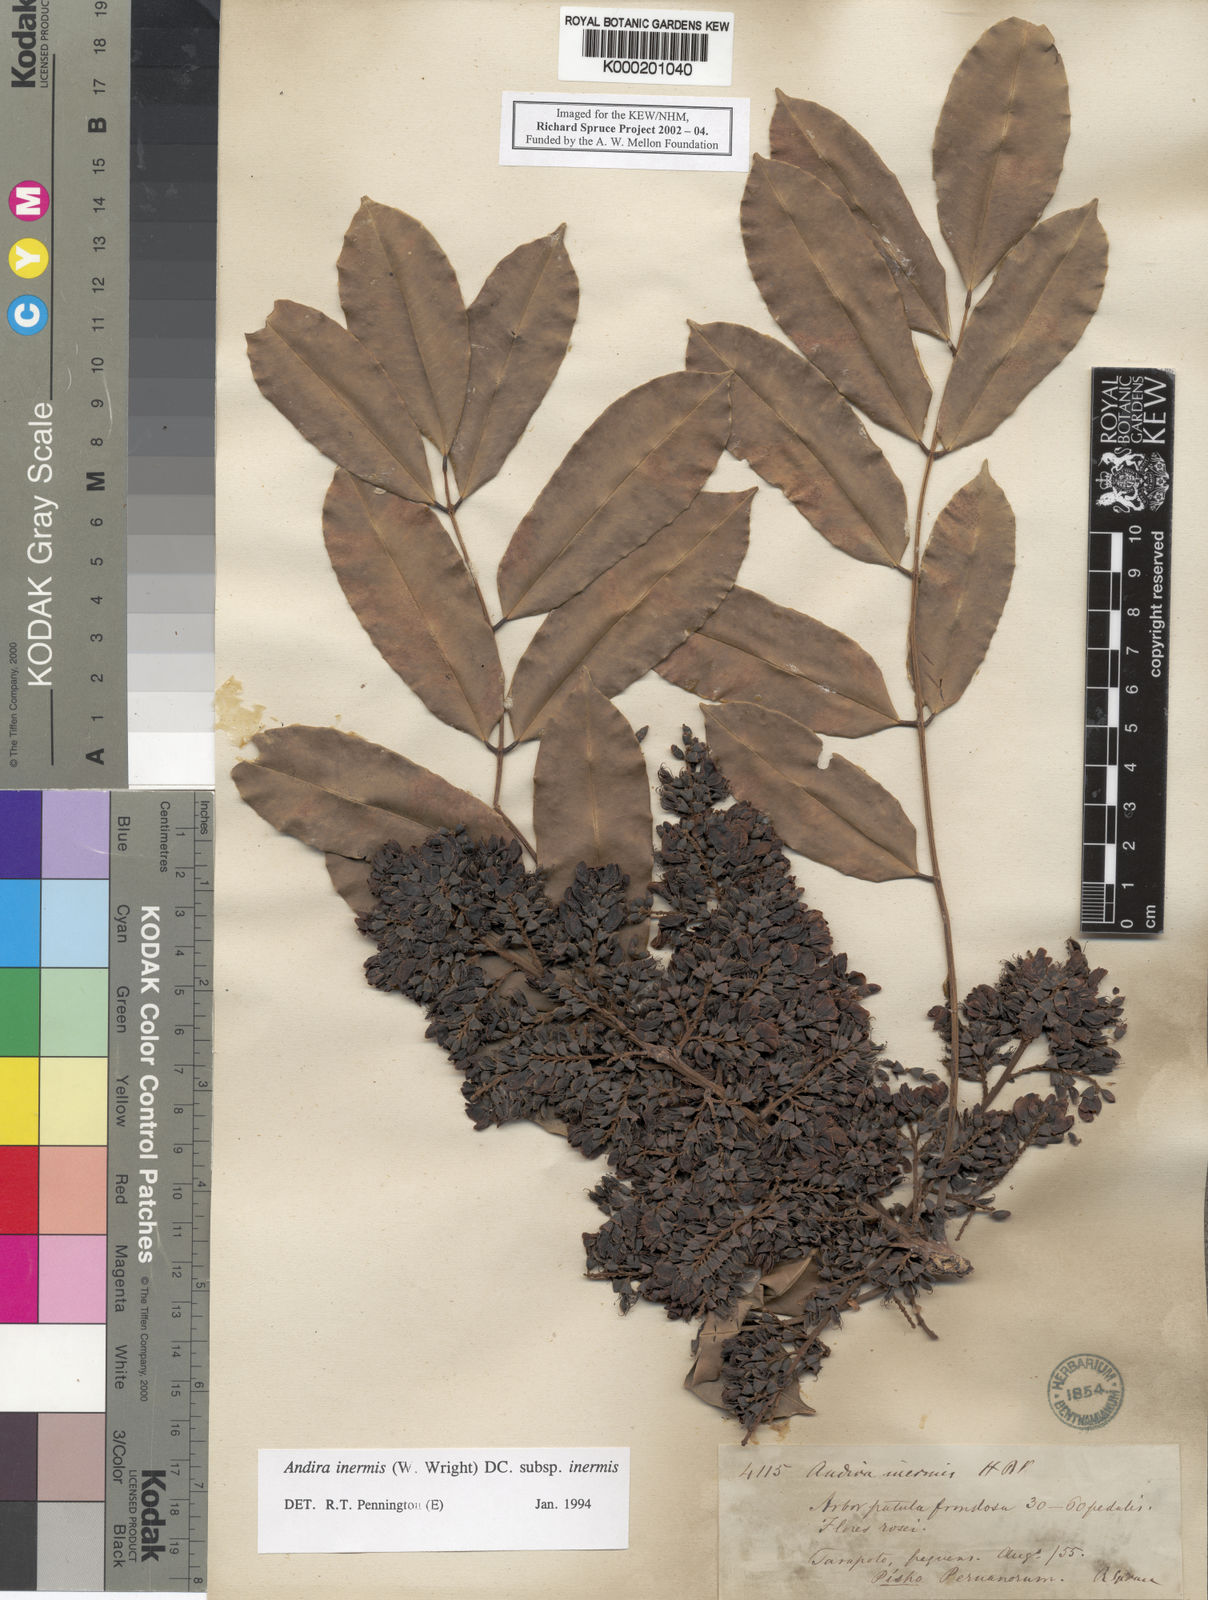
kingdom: Plantae
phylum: Tracheophyta
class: Magnoliopsida
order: Fabales
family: Fabaceae
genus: Andira
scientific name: Andira inermis
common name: Angelin
